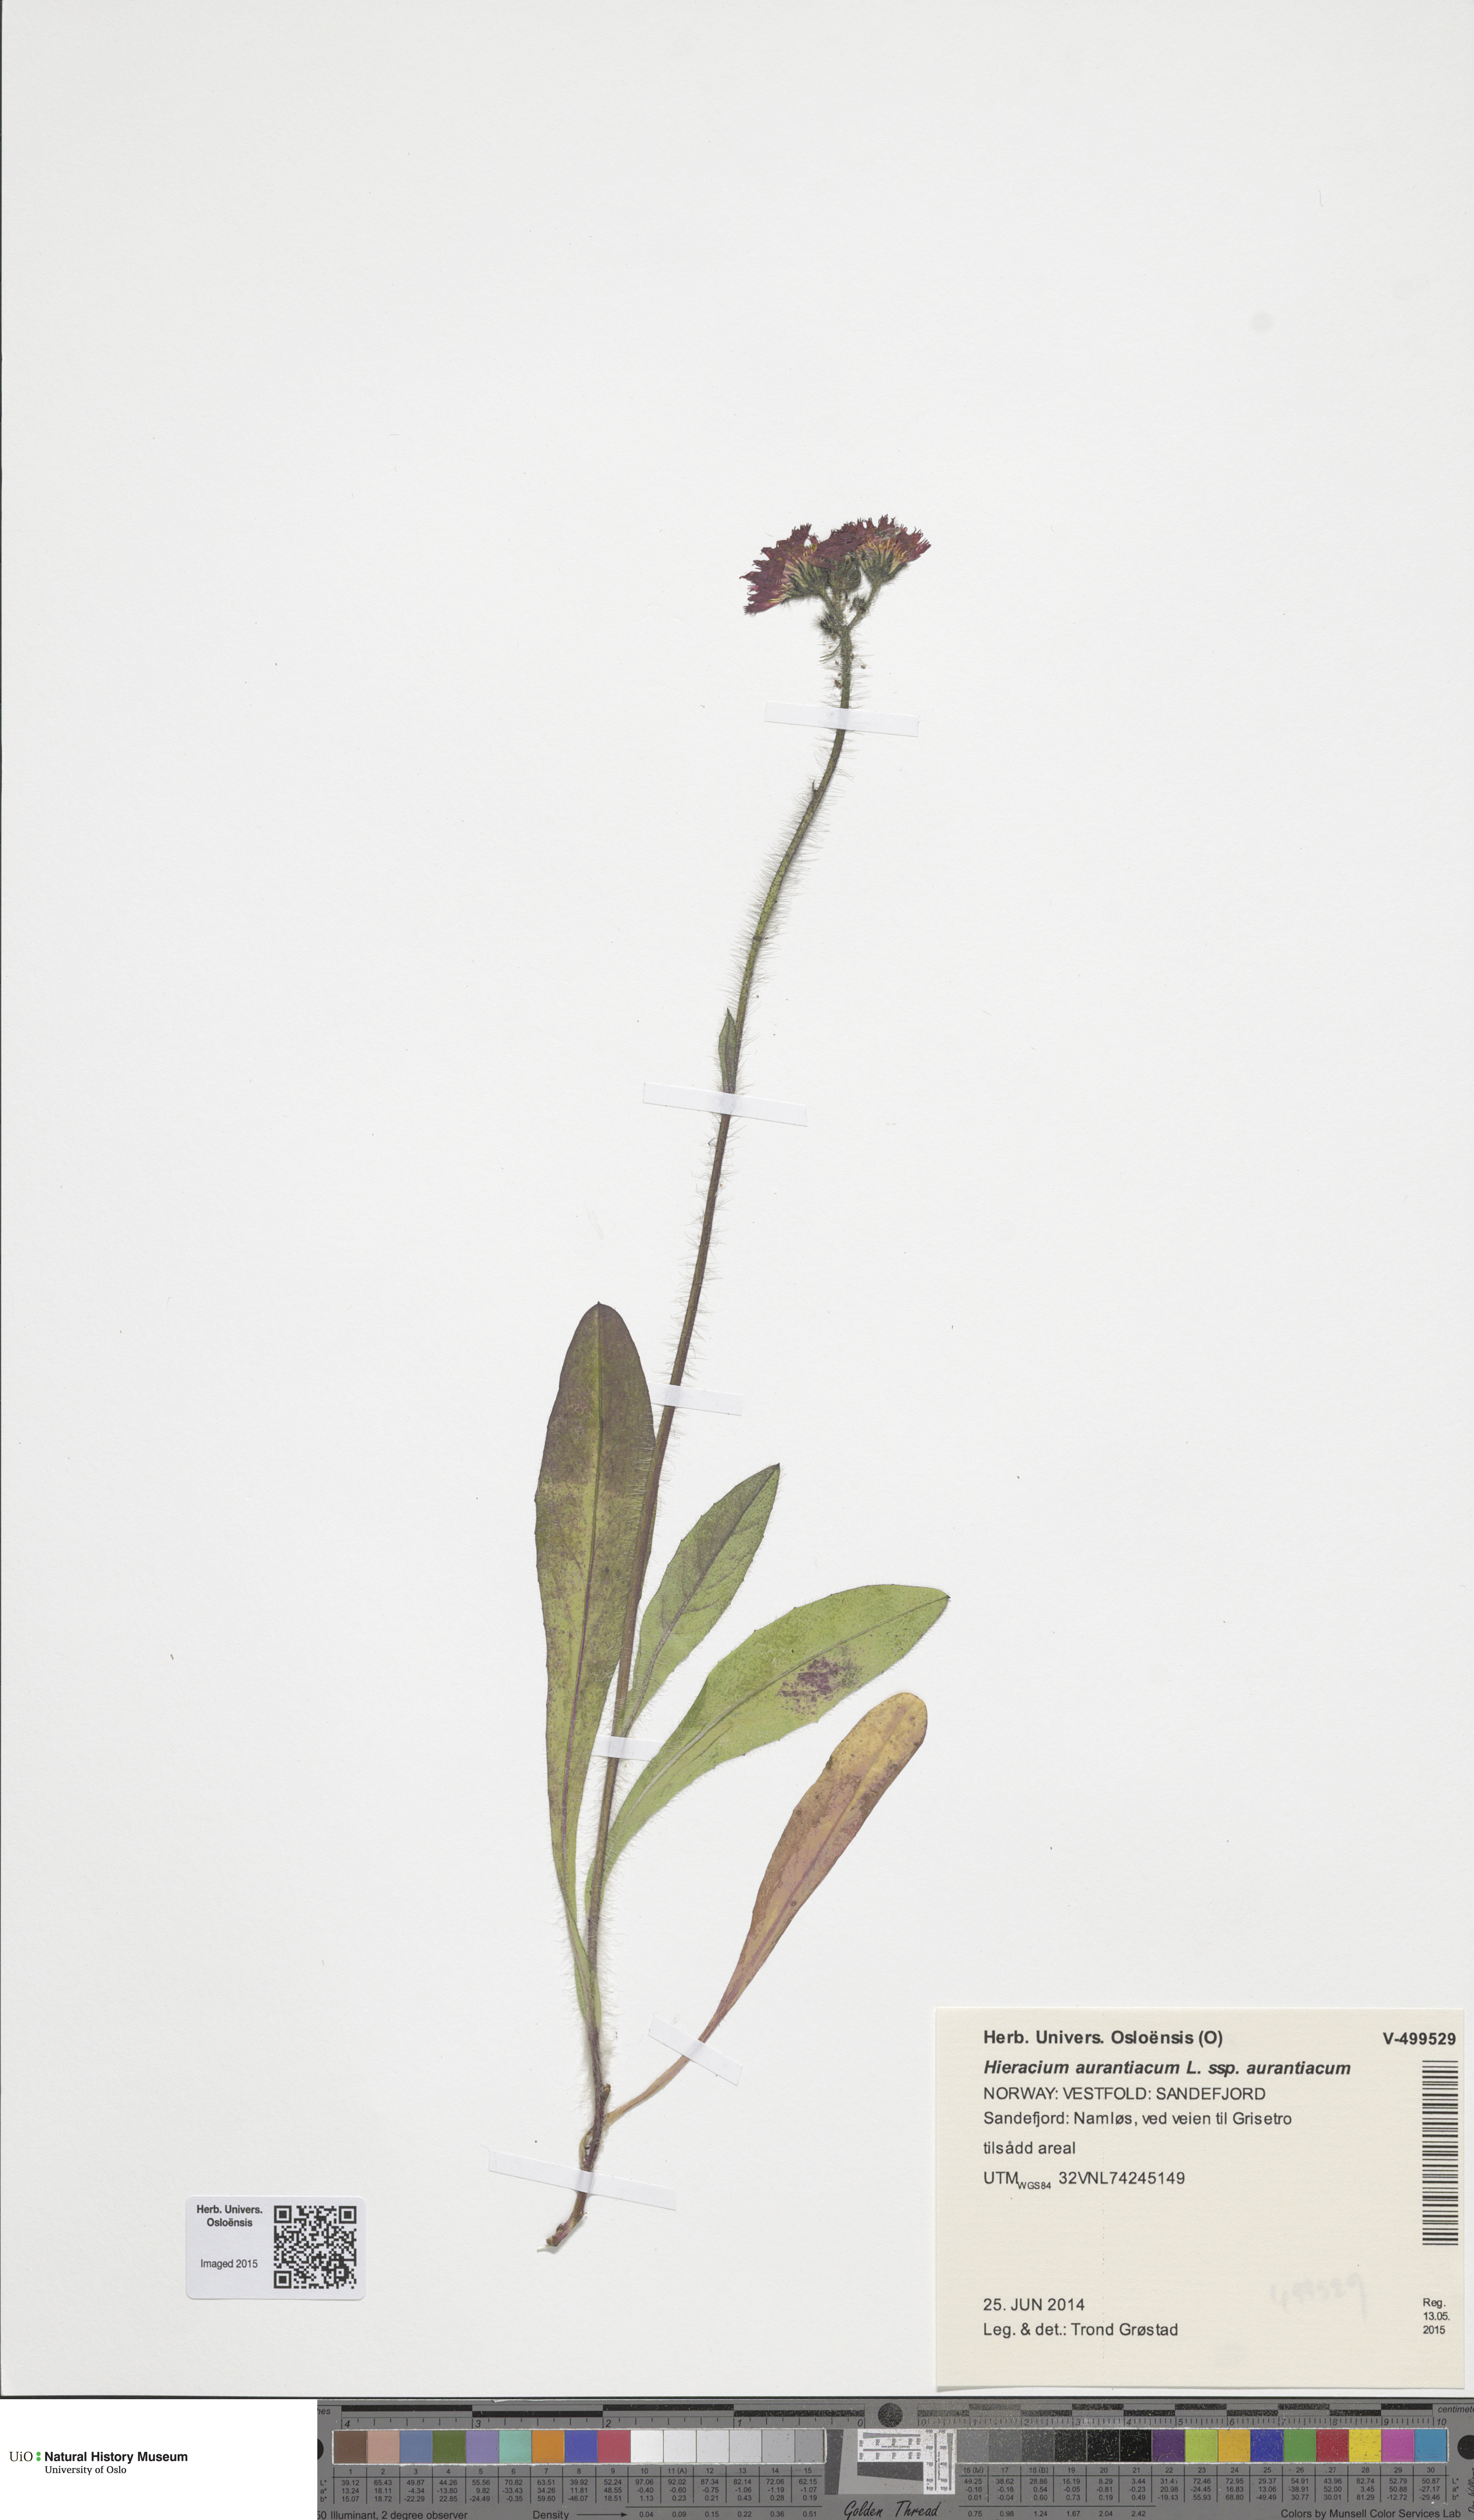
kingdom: Plantae
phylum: Tracheophyta
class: Magnoliopsida
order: Asterales
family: Asteraceae
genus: Pilosella
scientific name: Pilosella aurantiaca
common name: Fox-and-cubs
